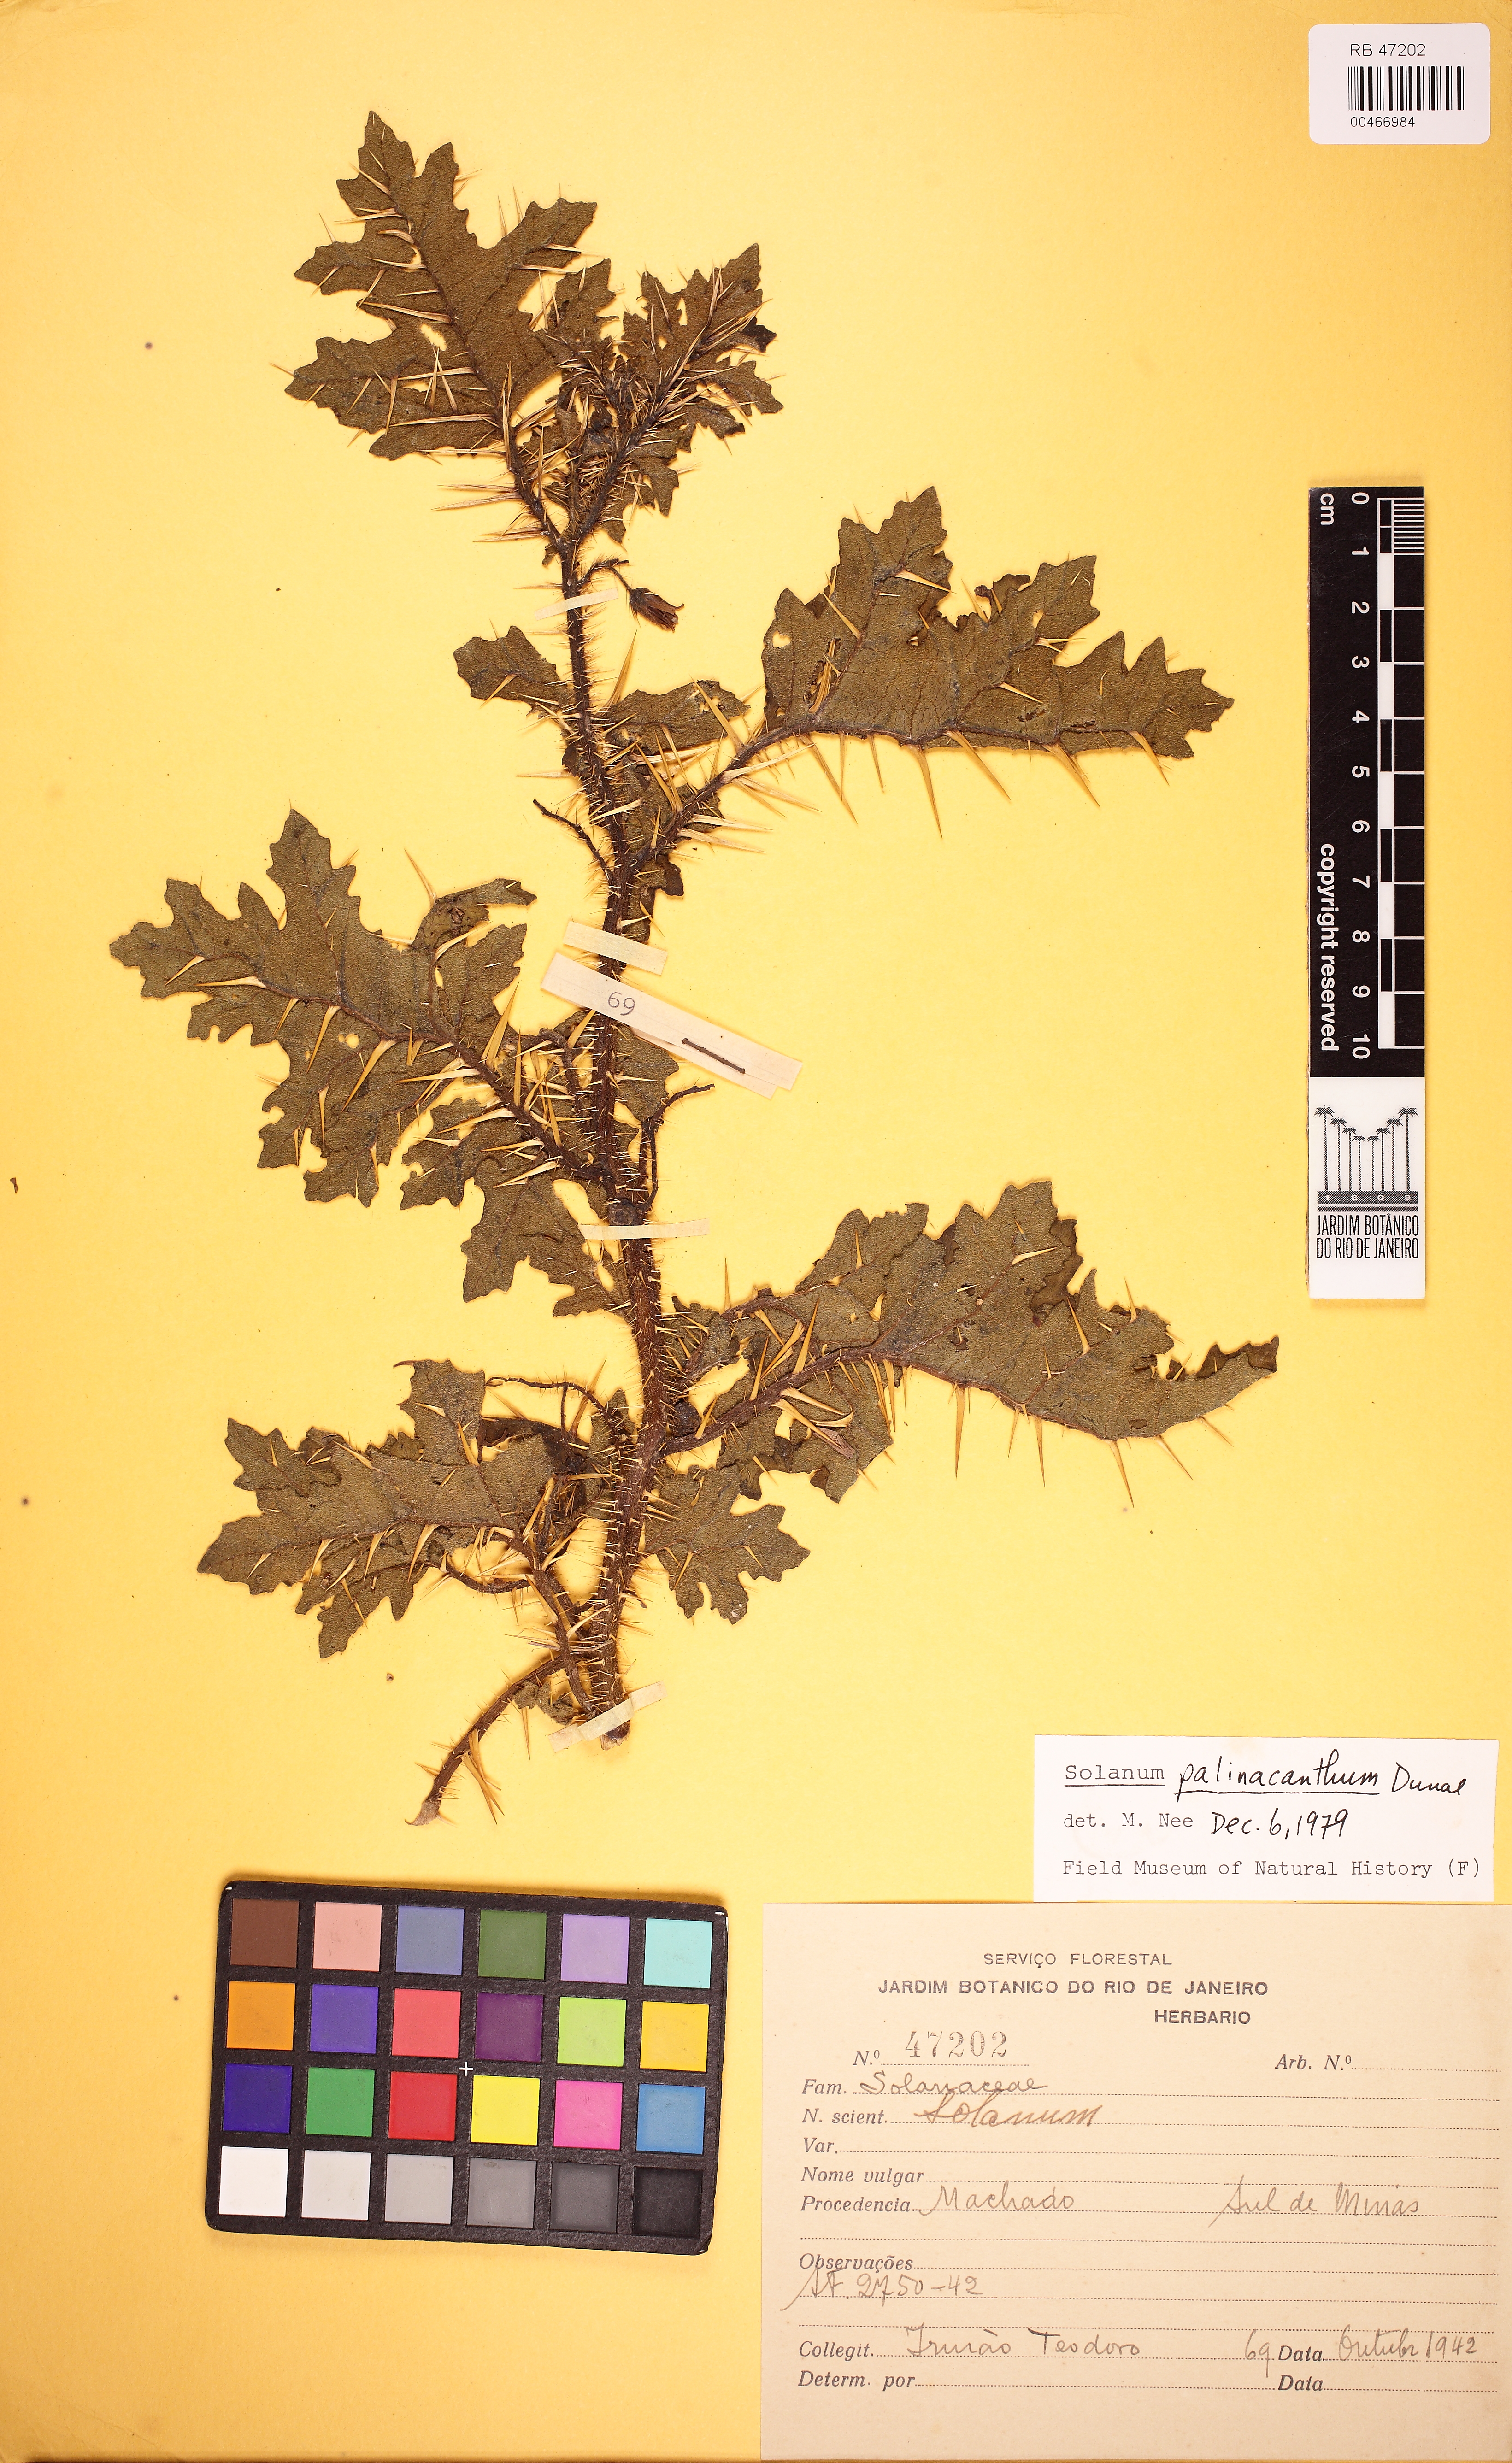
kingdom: Plantae
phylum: Tracheophyta
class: Magnoliopsida
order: Solanales
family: Solanaceae
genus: Solanum
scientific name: Solanum palinacanthum
